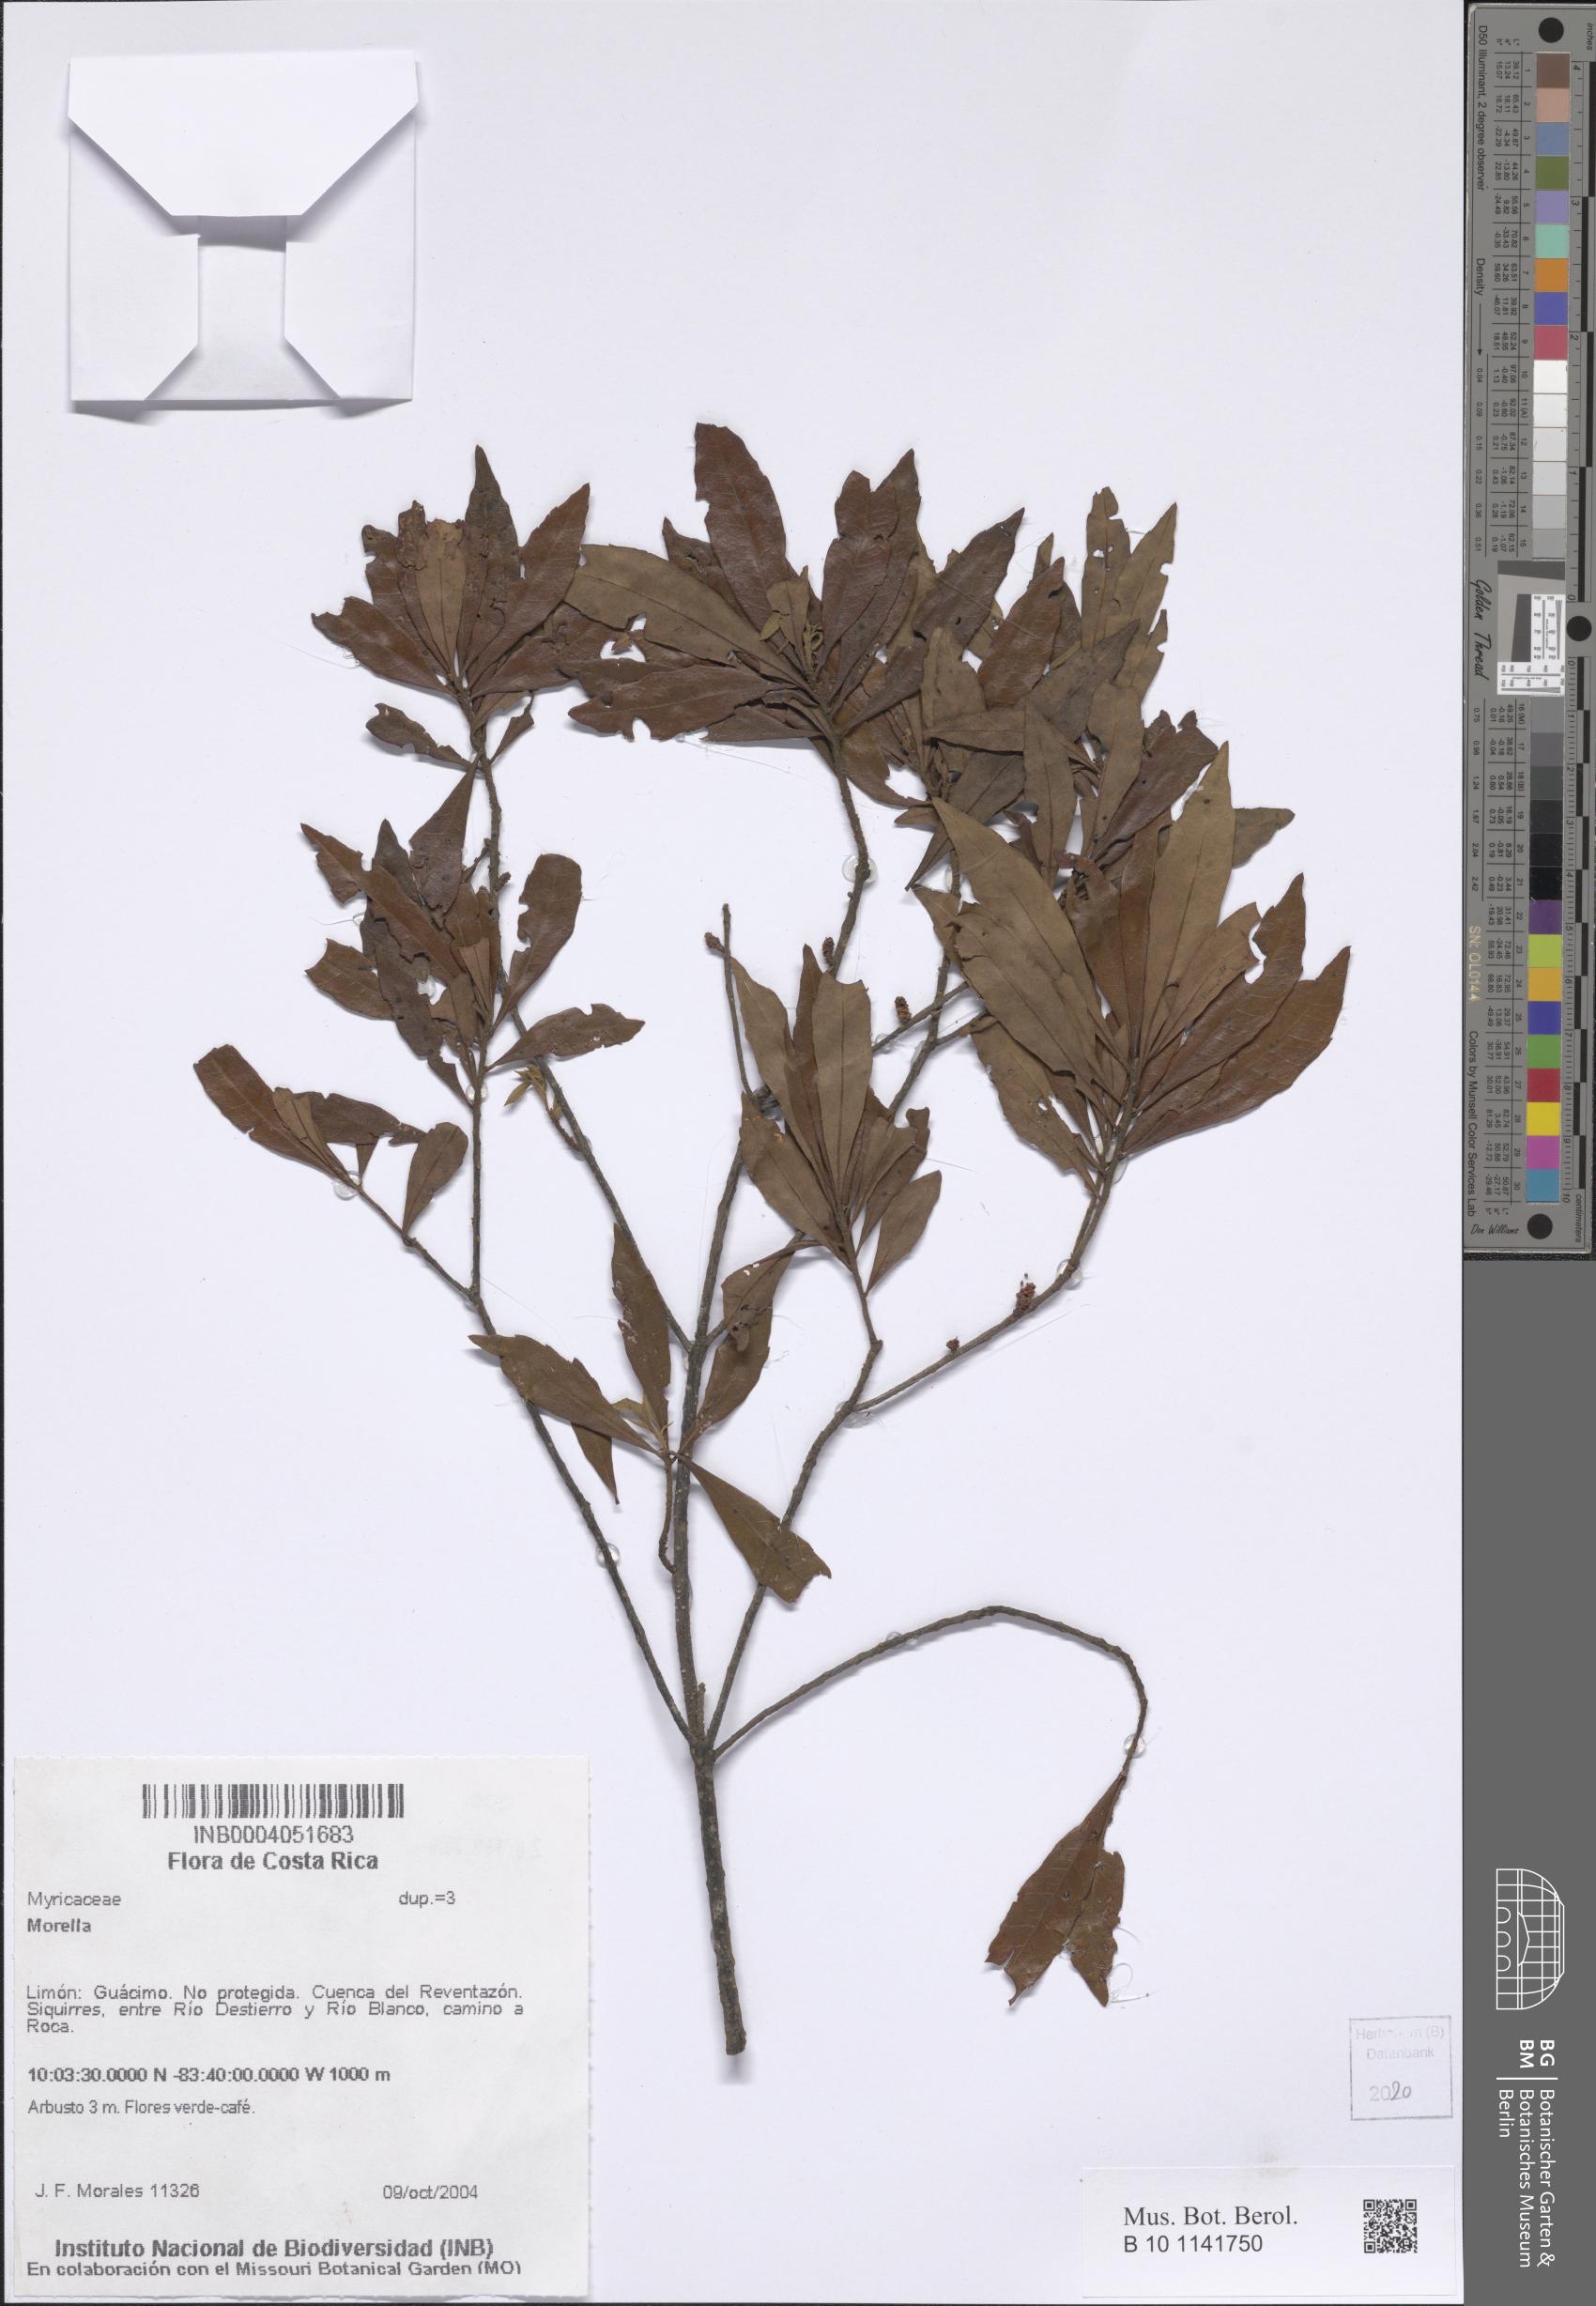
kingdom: Plantae
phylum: Tracheophyta
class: Magnoliopsida
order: Fagales
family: Myricaceae
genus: Morella
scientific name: Morella
